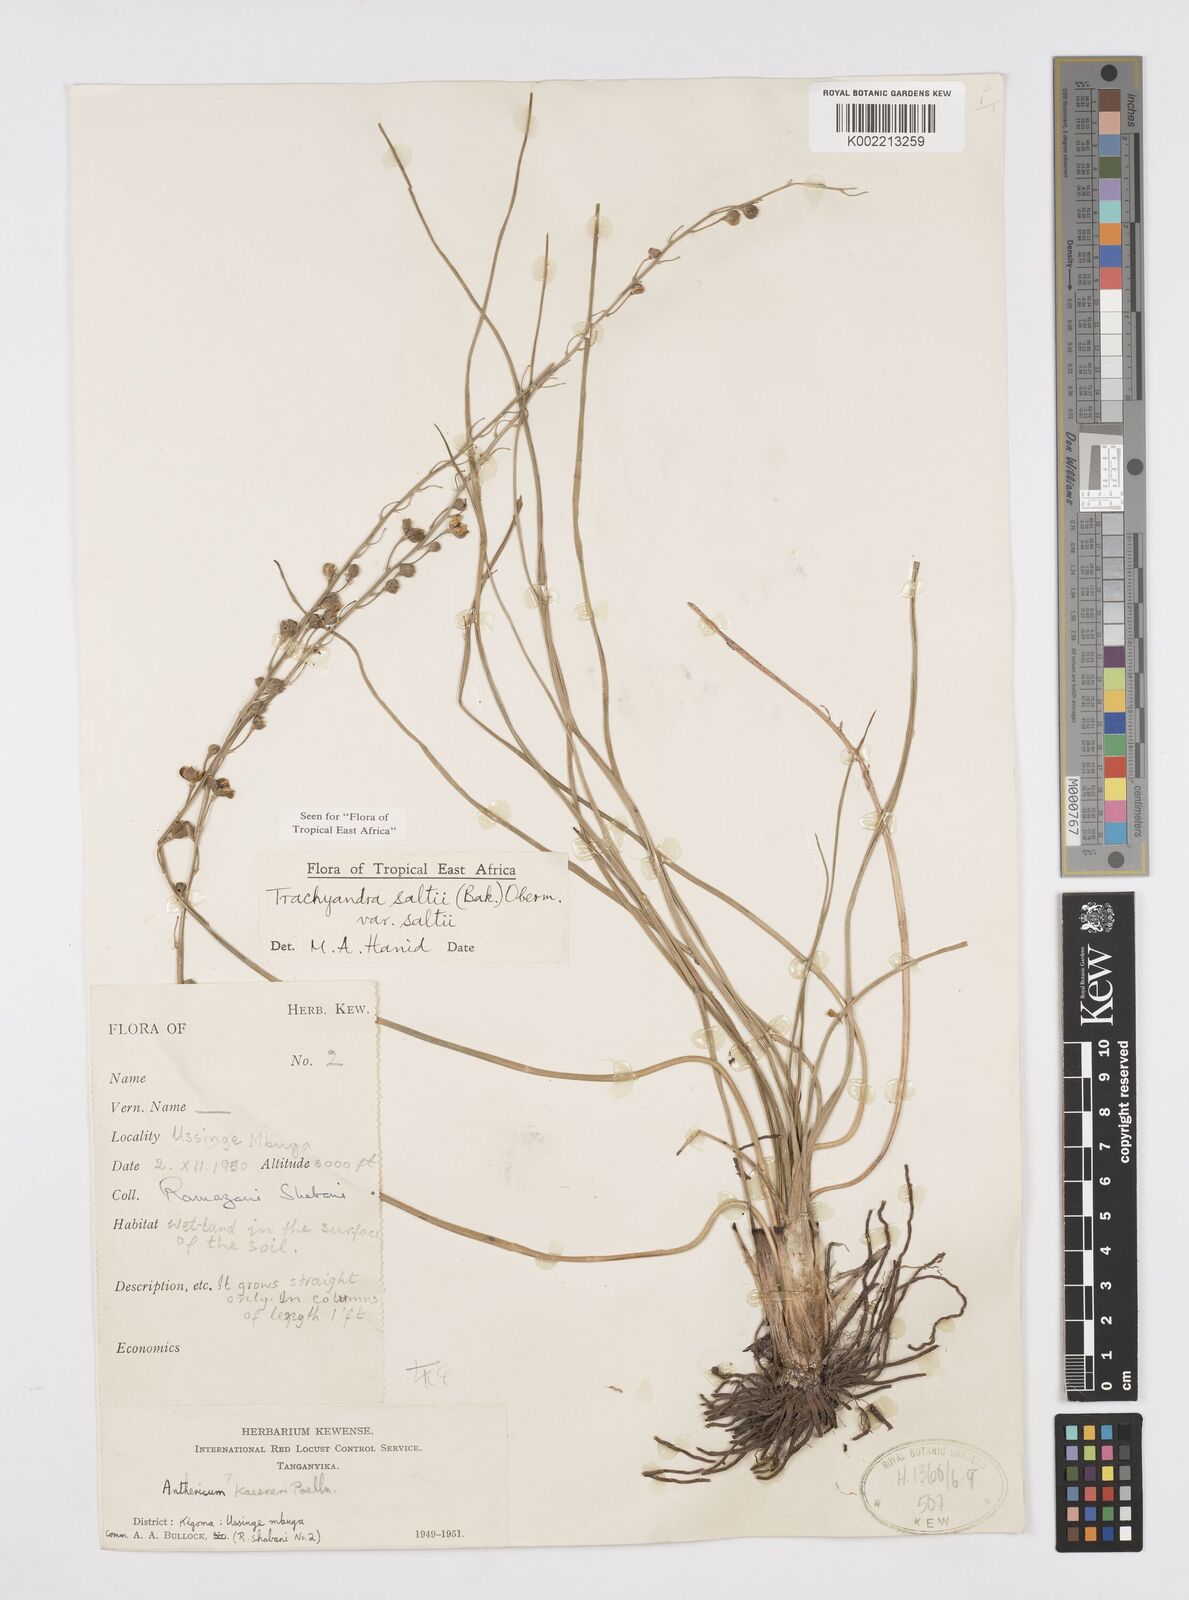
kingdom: Plantae
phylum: Tracheophyta
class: Liliopsida
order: Asparagales
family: Asphodelaceae
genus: Trachyandra
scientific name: Trachyandra saltii
